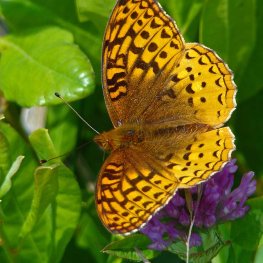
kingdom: Animalia
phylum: Arthropoda
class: Insecta
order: Lepidoptera
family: Nymphalidae
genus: Speyeria
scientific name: Speyeria cybele
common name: Great Spangled Fritillary
